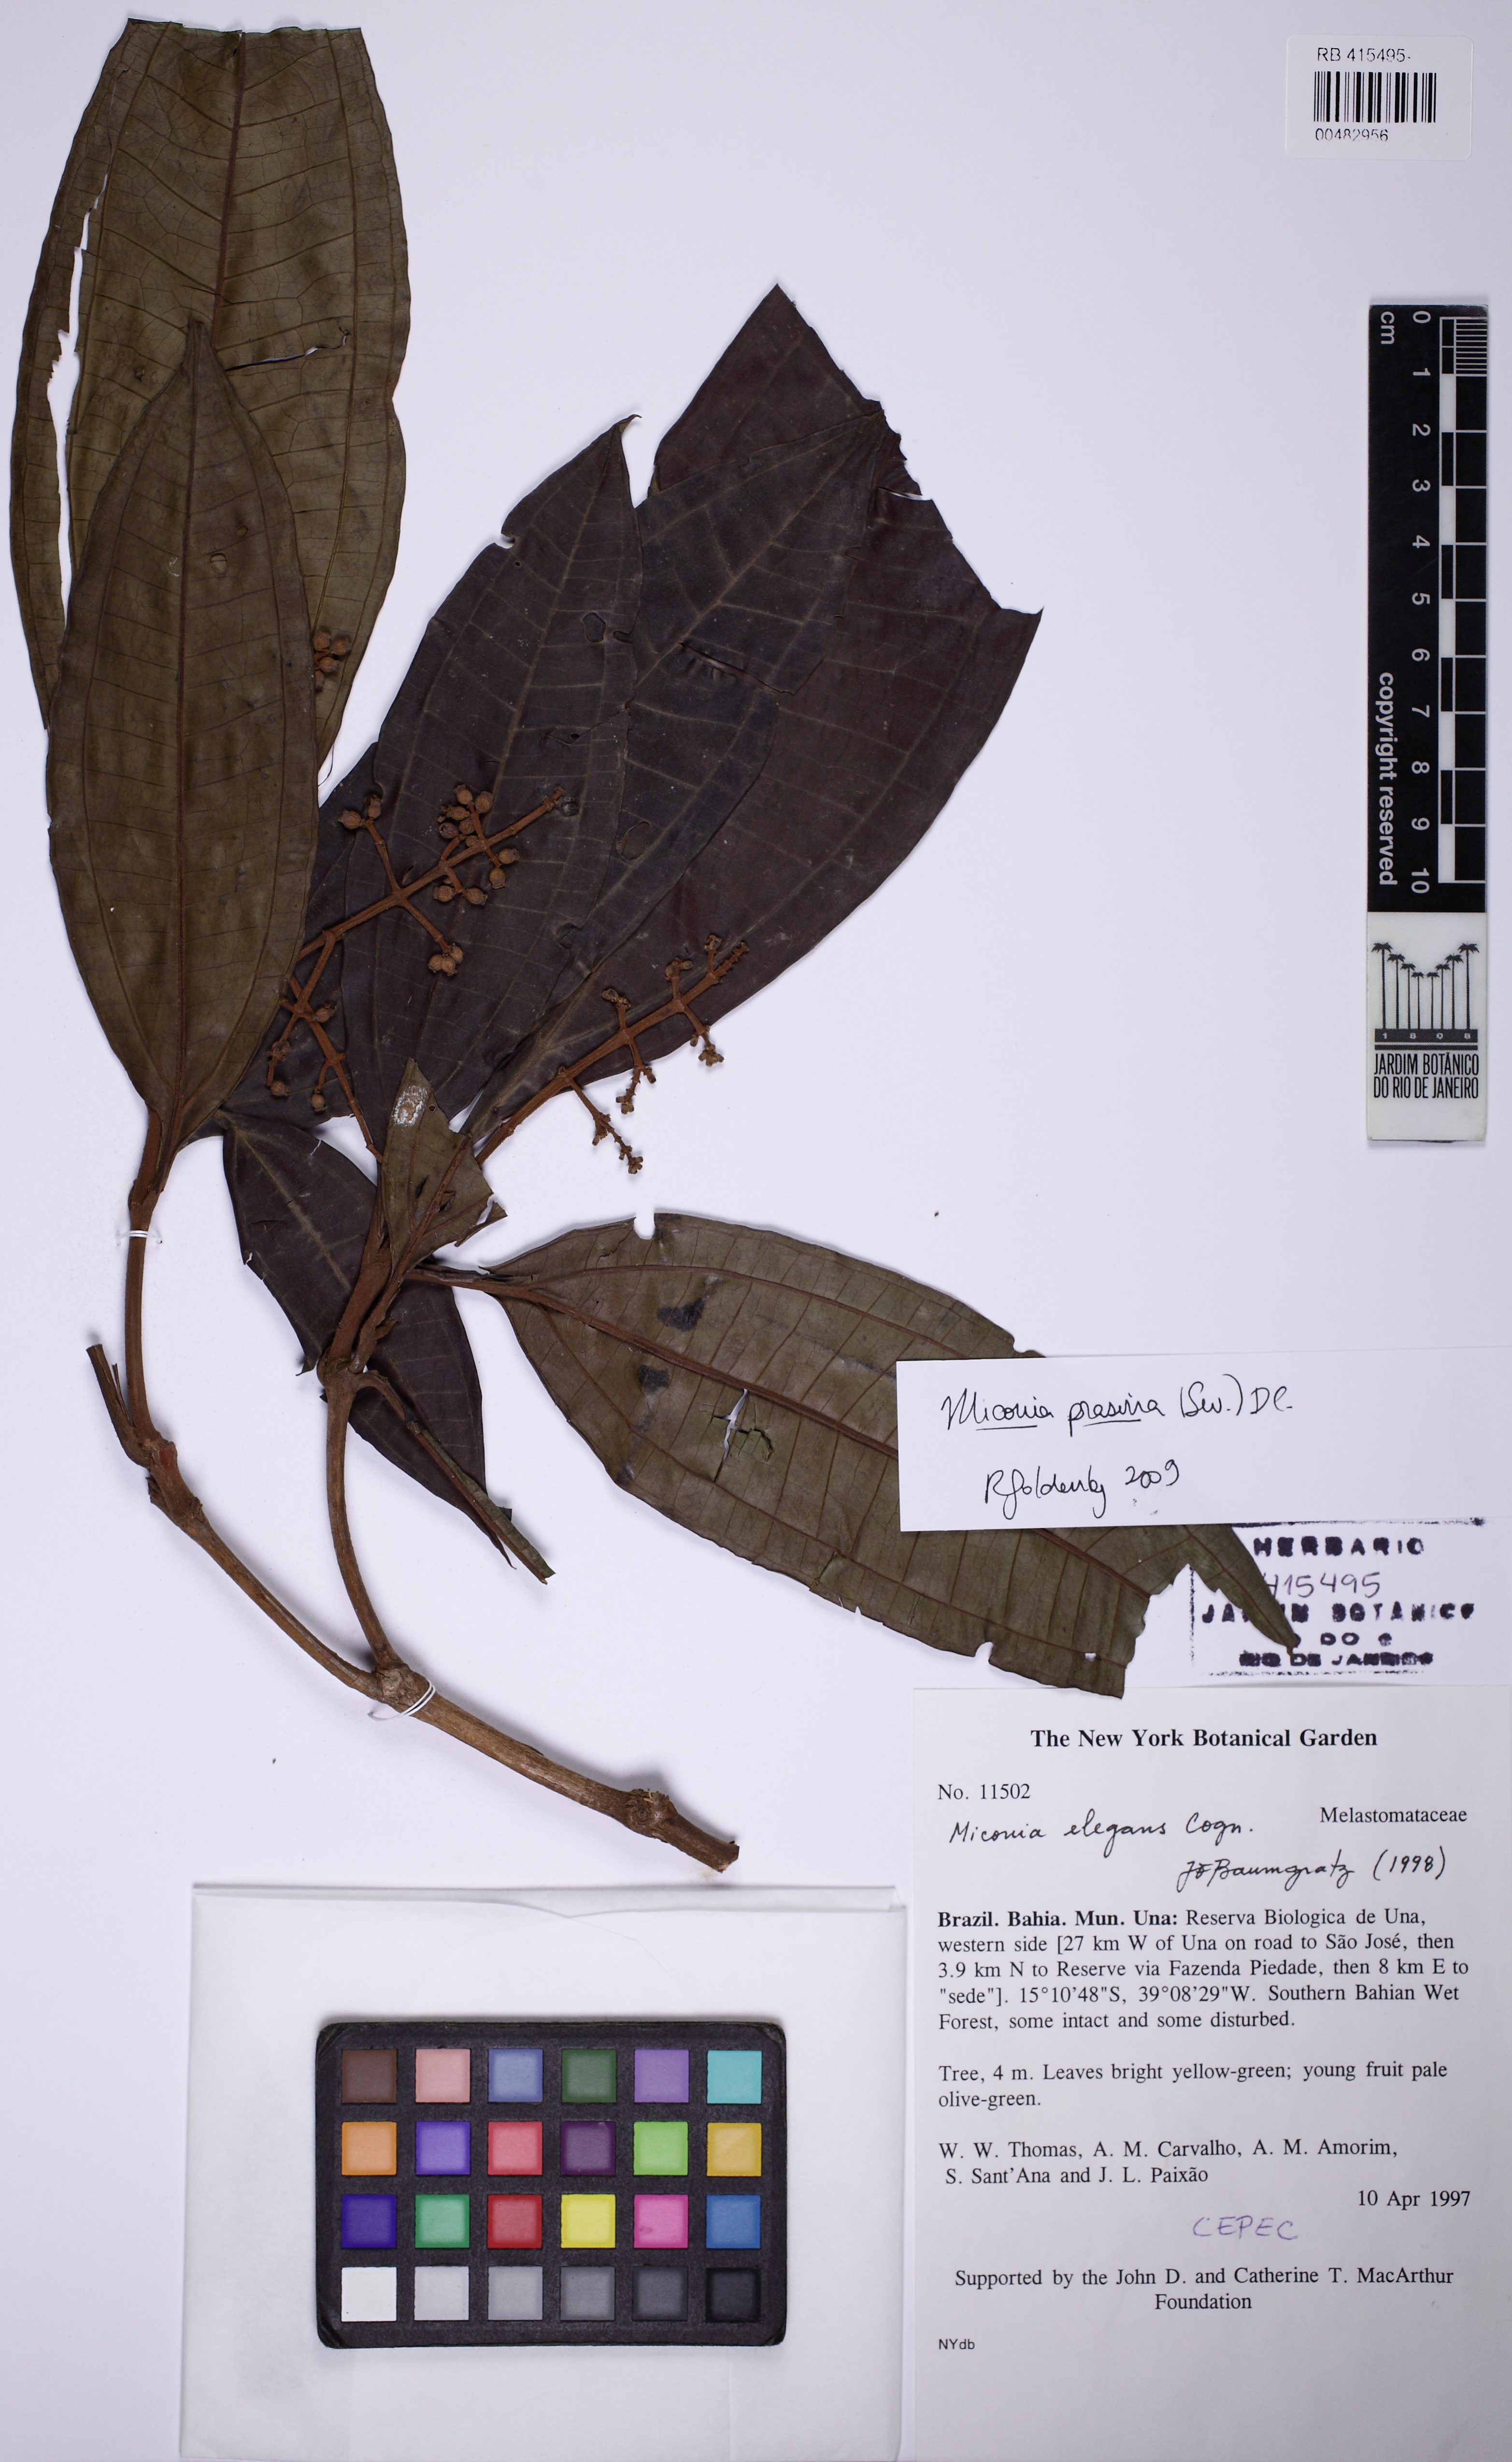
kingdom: Plantae
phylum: Tracheophyta
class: Magnoliopsida
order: Myrtales
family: Melastomataceae
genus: Miconia
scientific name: Miconia prasina
